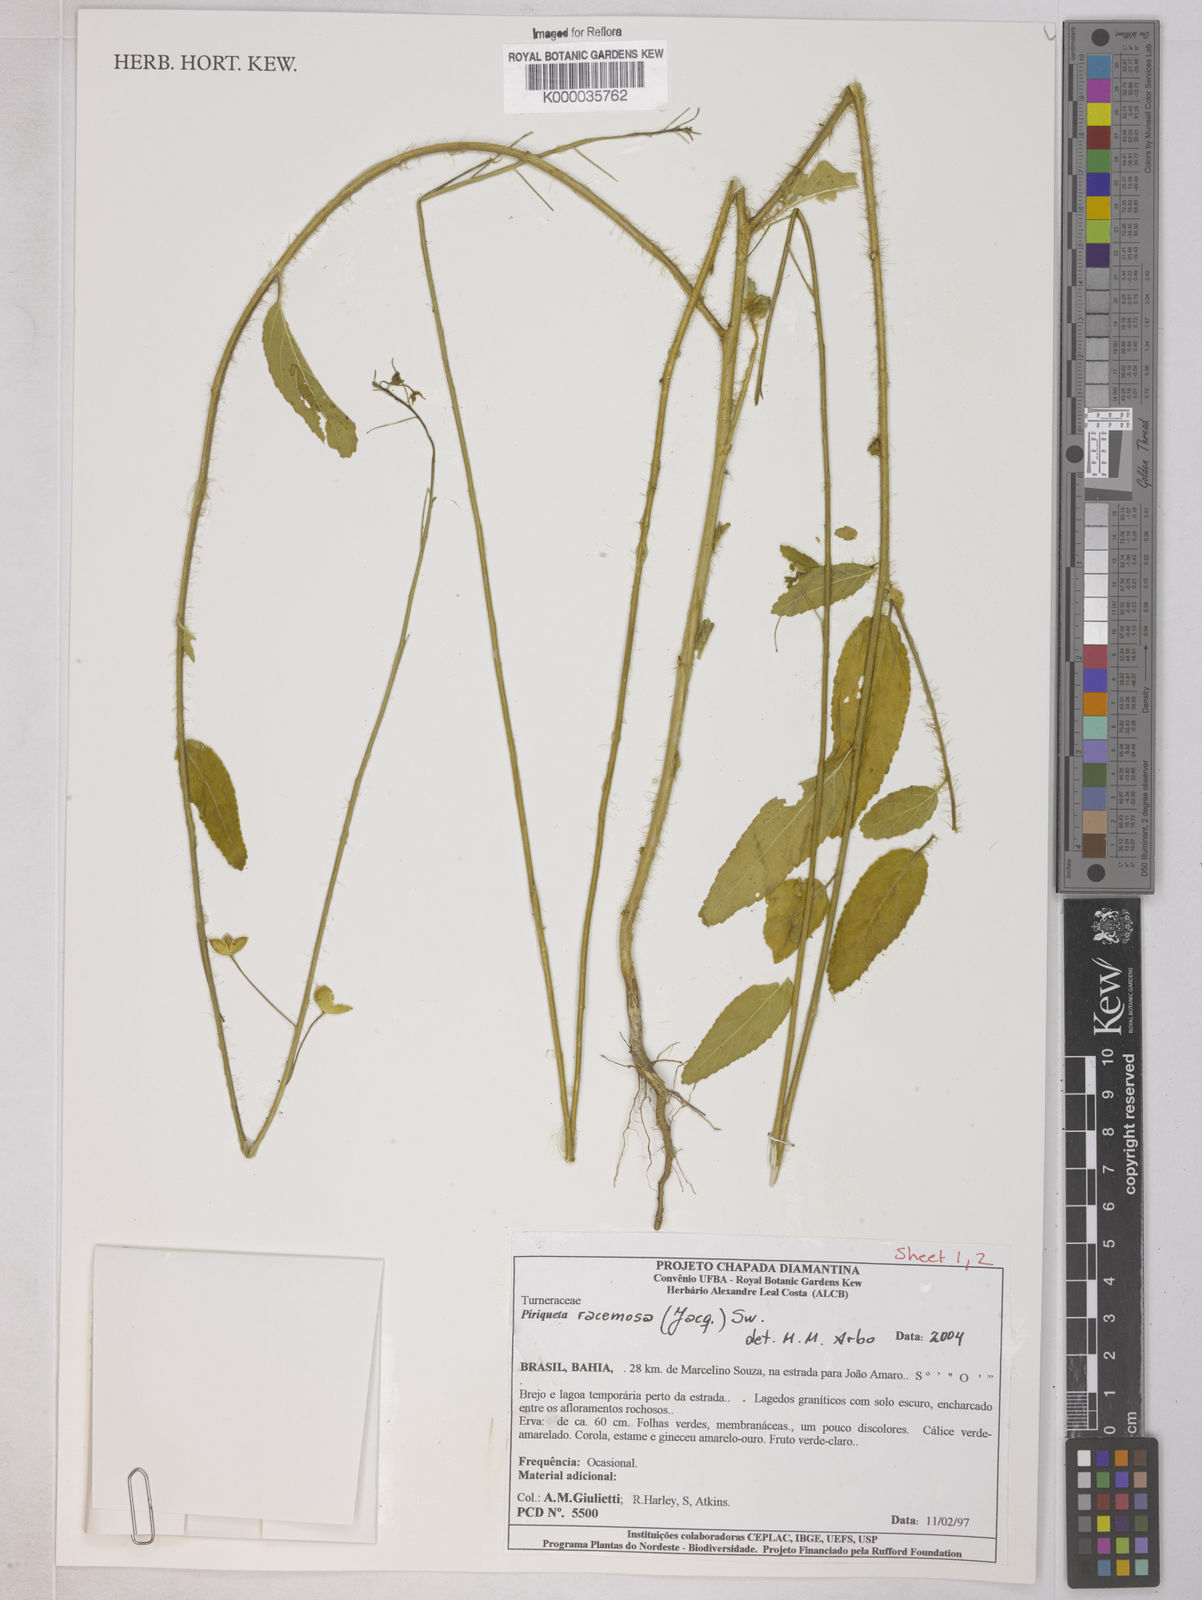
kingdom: Plantae
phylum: Tracheophyta
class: Magnoliopsida
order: Malpighiales
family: Turneraceae
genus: Piriqueta
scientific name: Piriqueta
